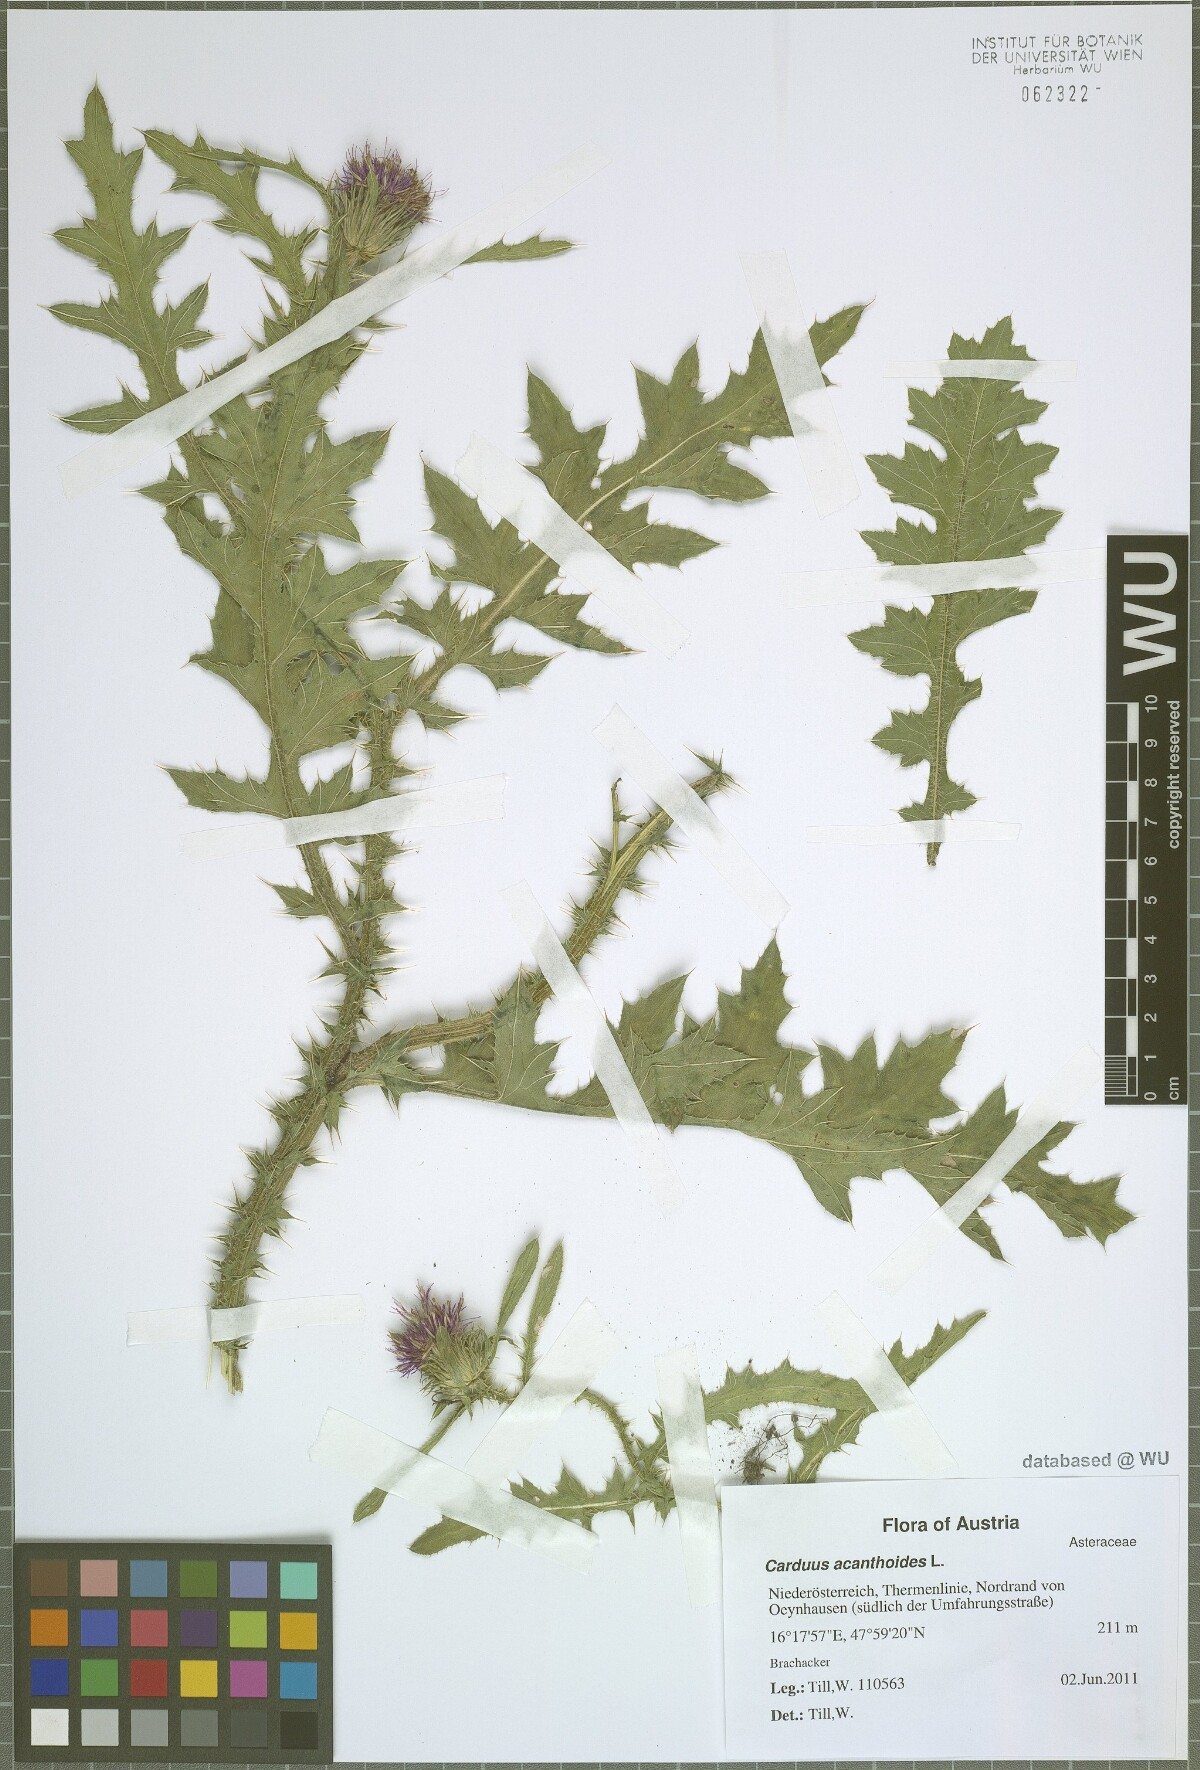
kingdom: Plantae
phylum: Tracheophyta
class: Magnoliopsida
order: Asterales
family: Asteraceae
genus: Carduus
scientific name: Carduus acanthoides
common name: Plumeless thistle
